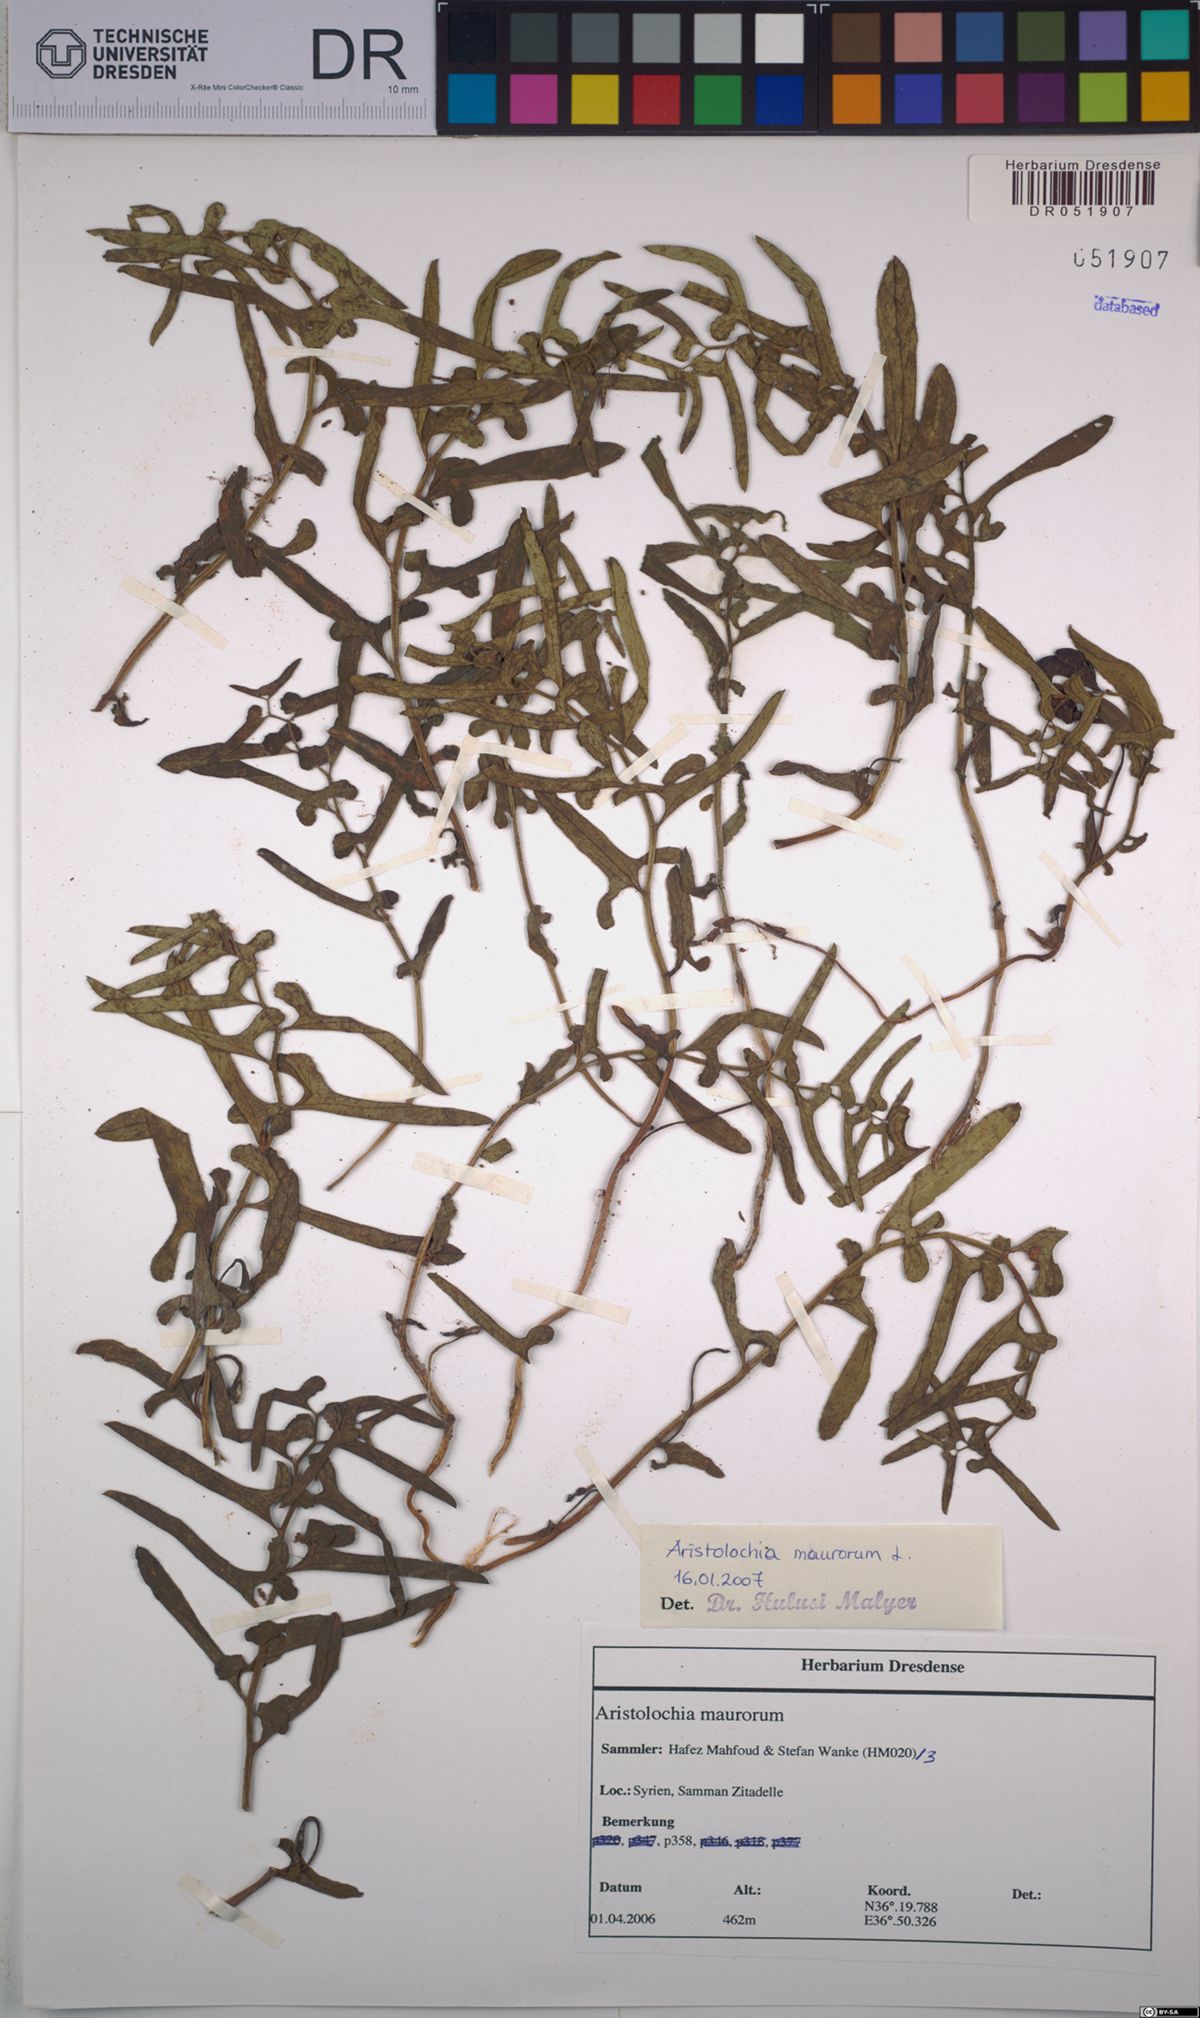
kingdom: Plantae
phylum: Tracheophyta
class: Magnoliopsida
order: Piperales
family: Aristolochiaceae
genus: Aristolochia
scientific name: Aristolochia maurorum
